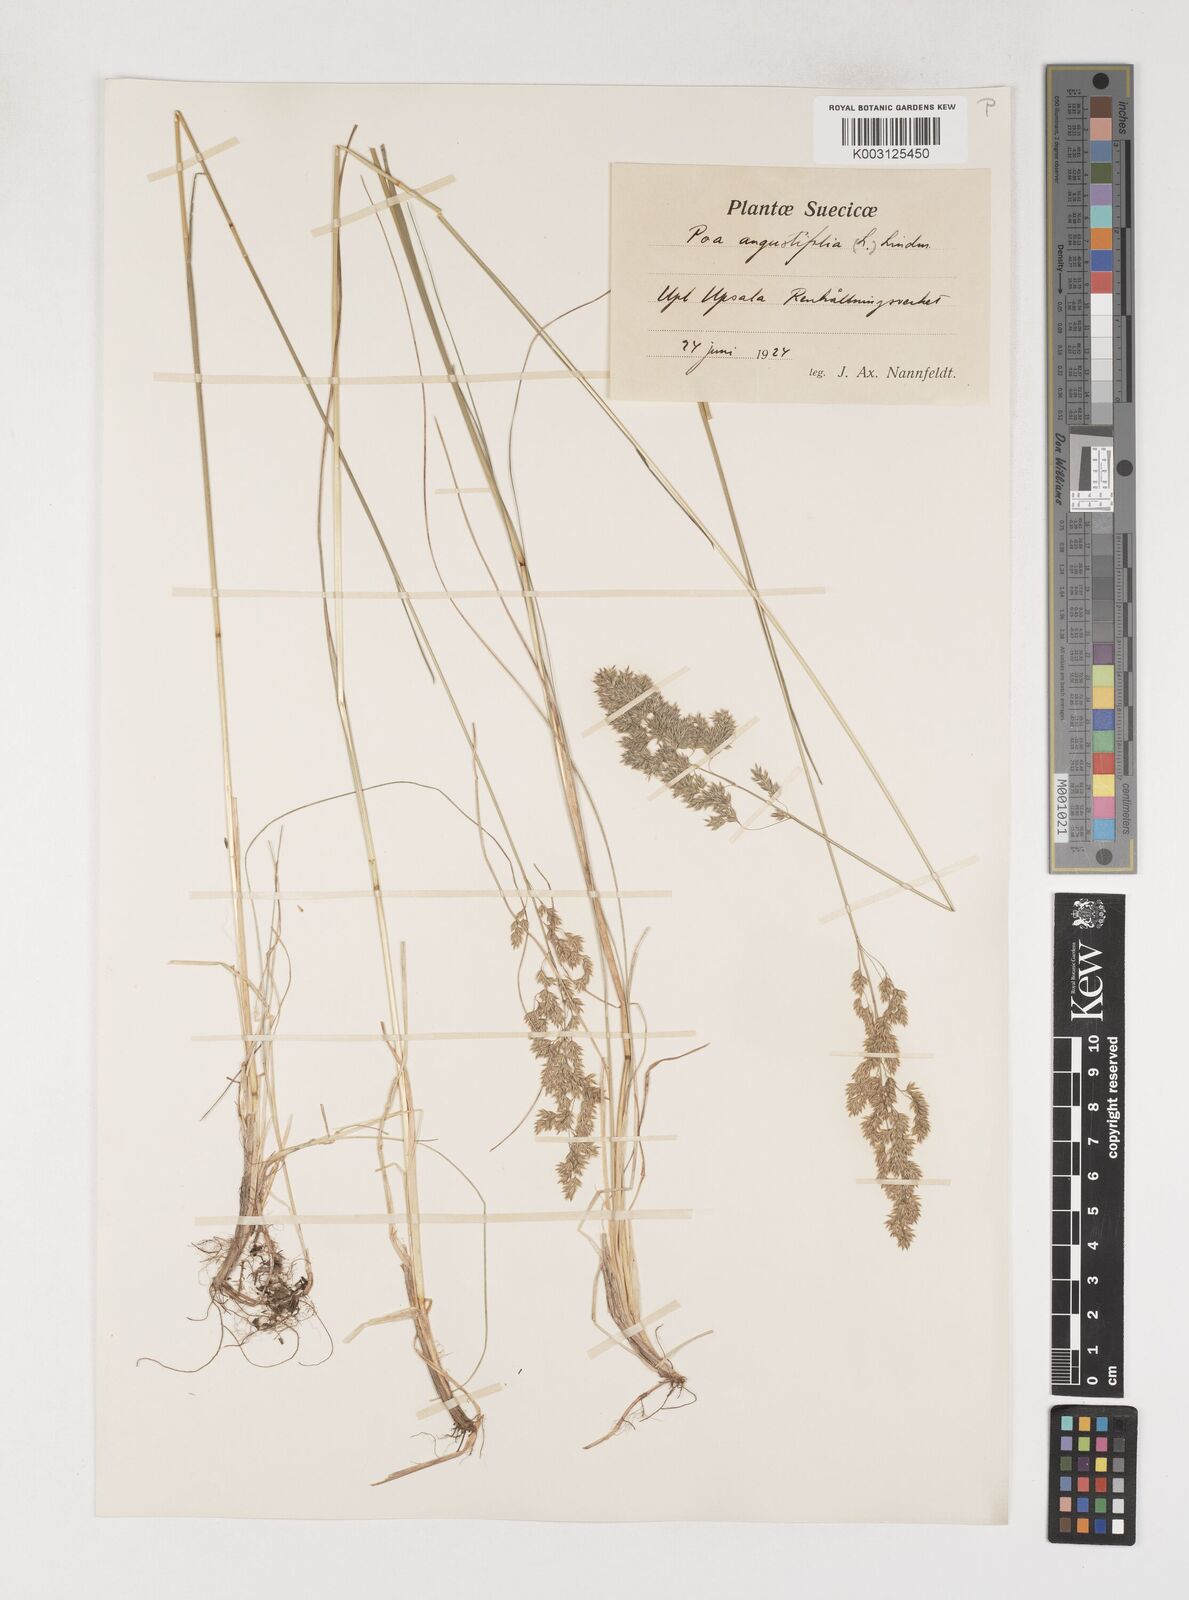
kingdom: Plantae
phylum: Tracheophyta
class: Liliopsida
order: Poales
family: Poaceae
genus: Poa
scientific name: Poa pratensis
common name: Kentucky bluegrass
